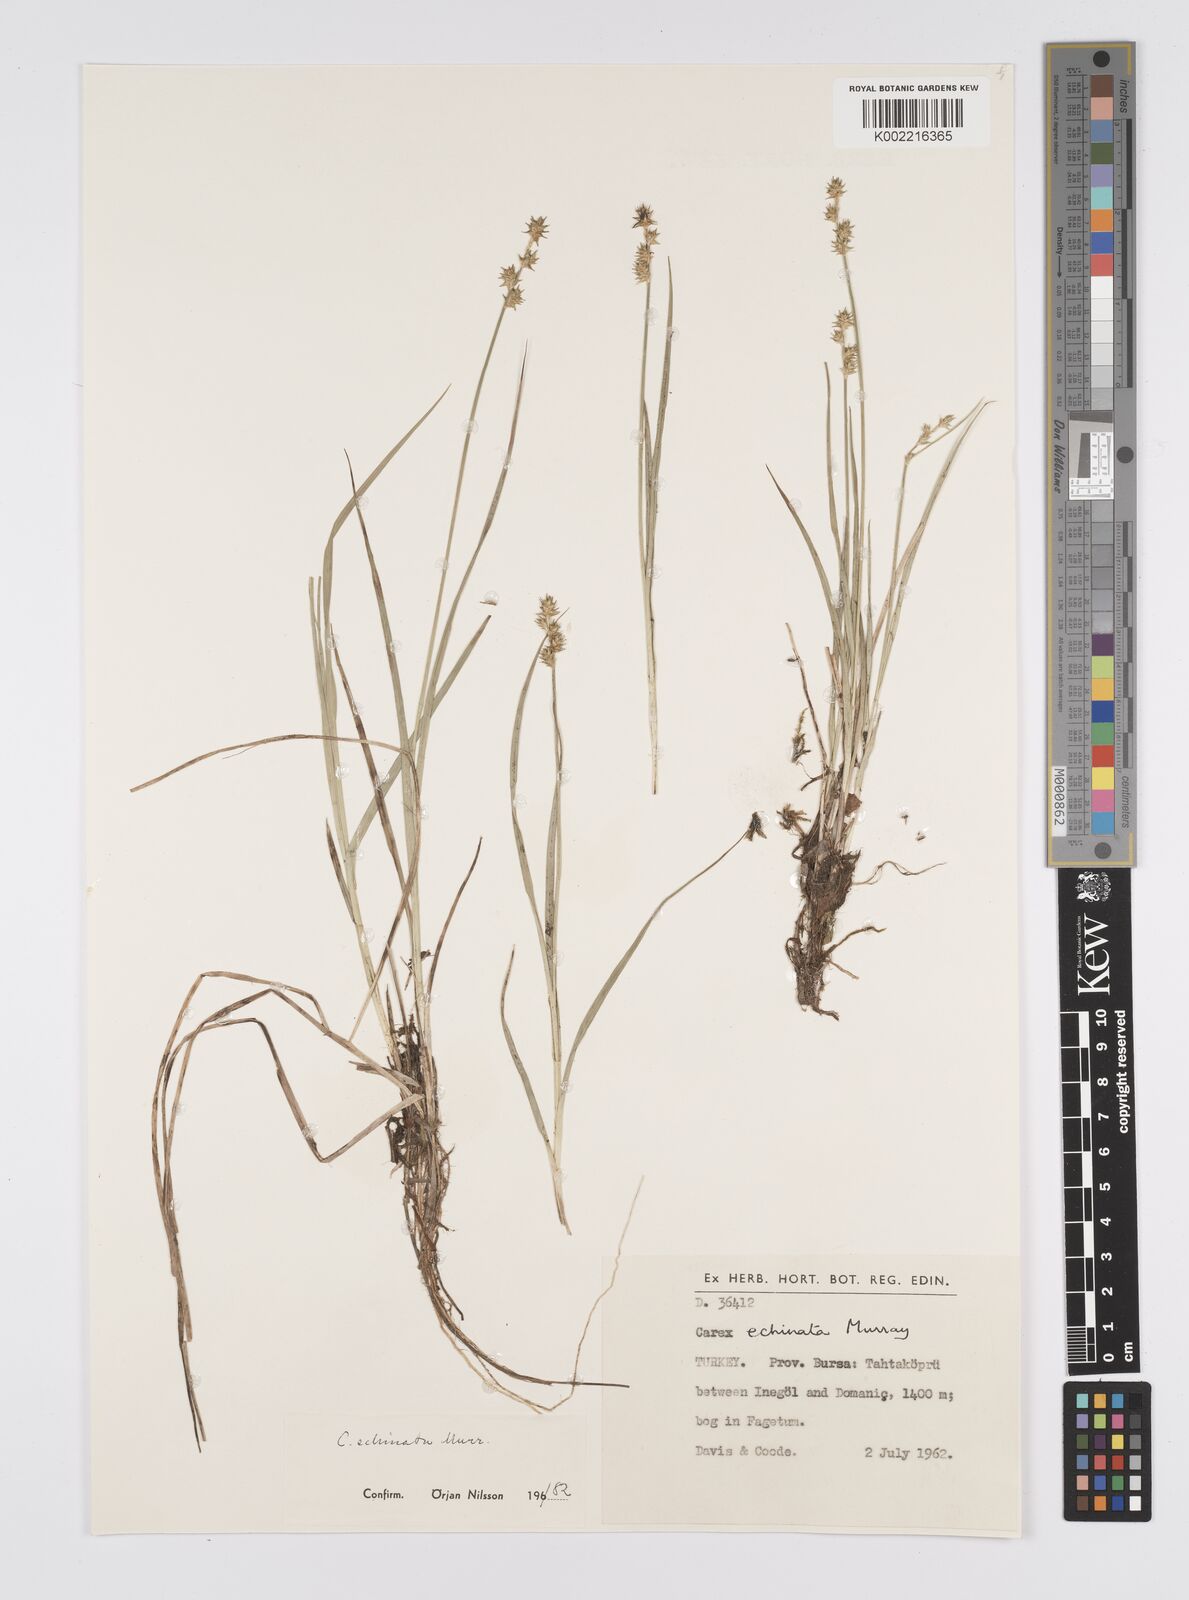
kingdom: Plantae
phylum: Tracheophyta
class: Liliopsida
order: Poales
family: Cyperaceae
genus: Carex
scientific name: Carex echinata
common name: Star sedge
